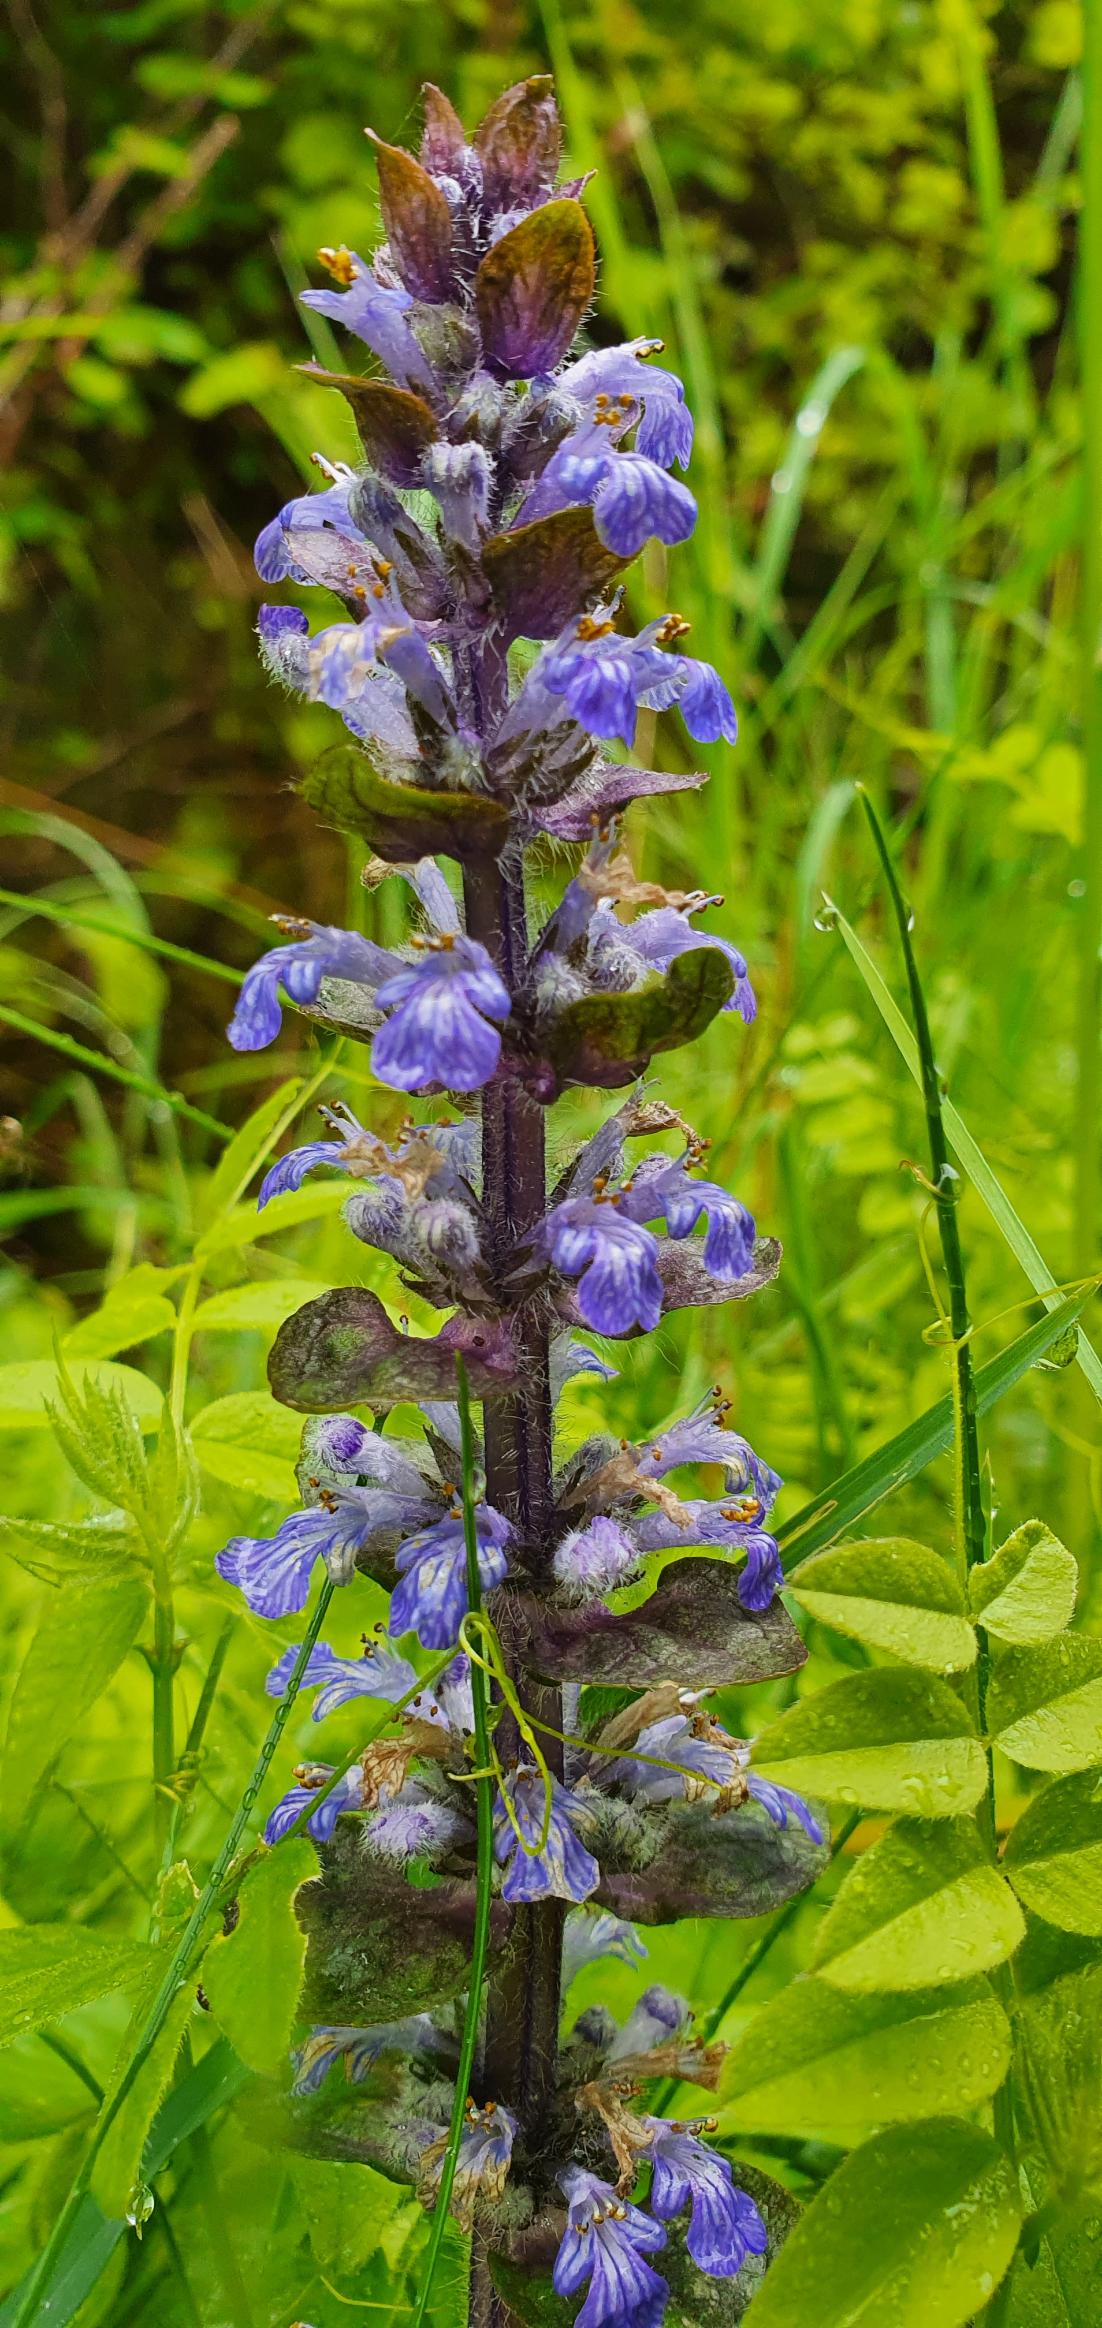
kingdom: Plantae
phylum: Tracheophyta
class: Magnoliopsida
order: Lamiales
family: Lamiaceae
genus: Ajuga
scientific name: Ajuga reptans
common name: Krybende læbeløs
